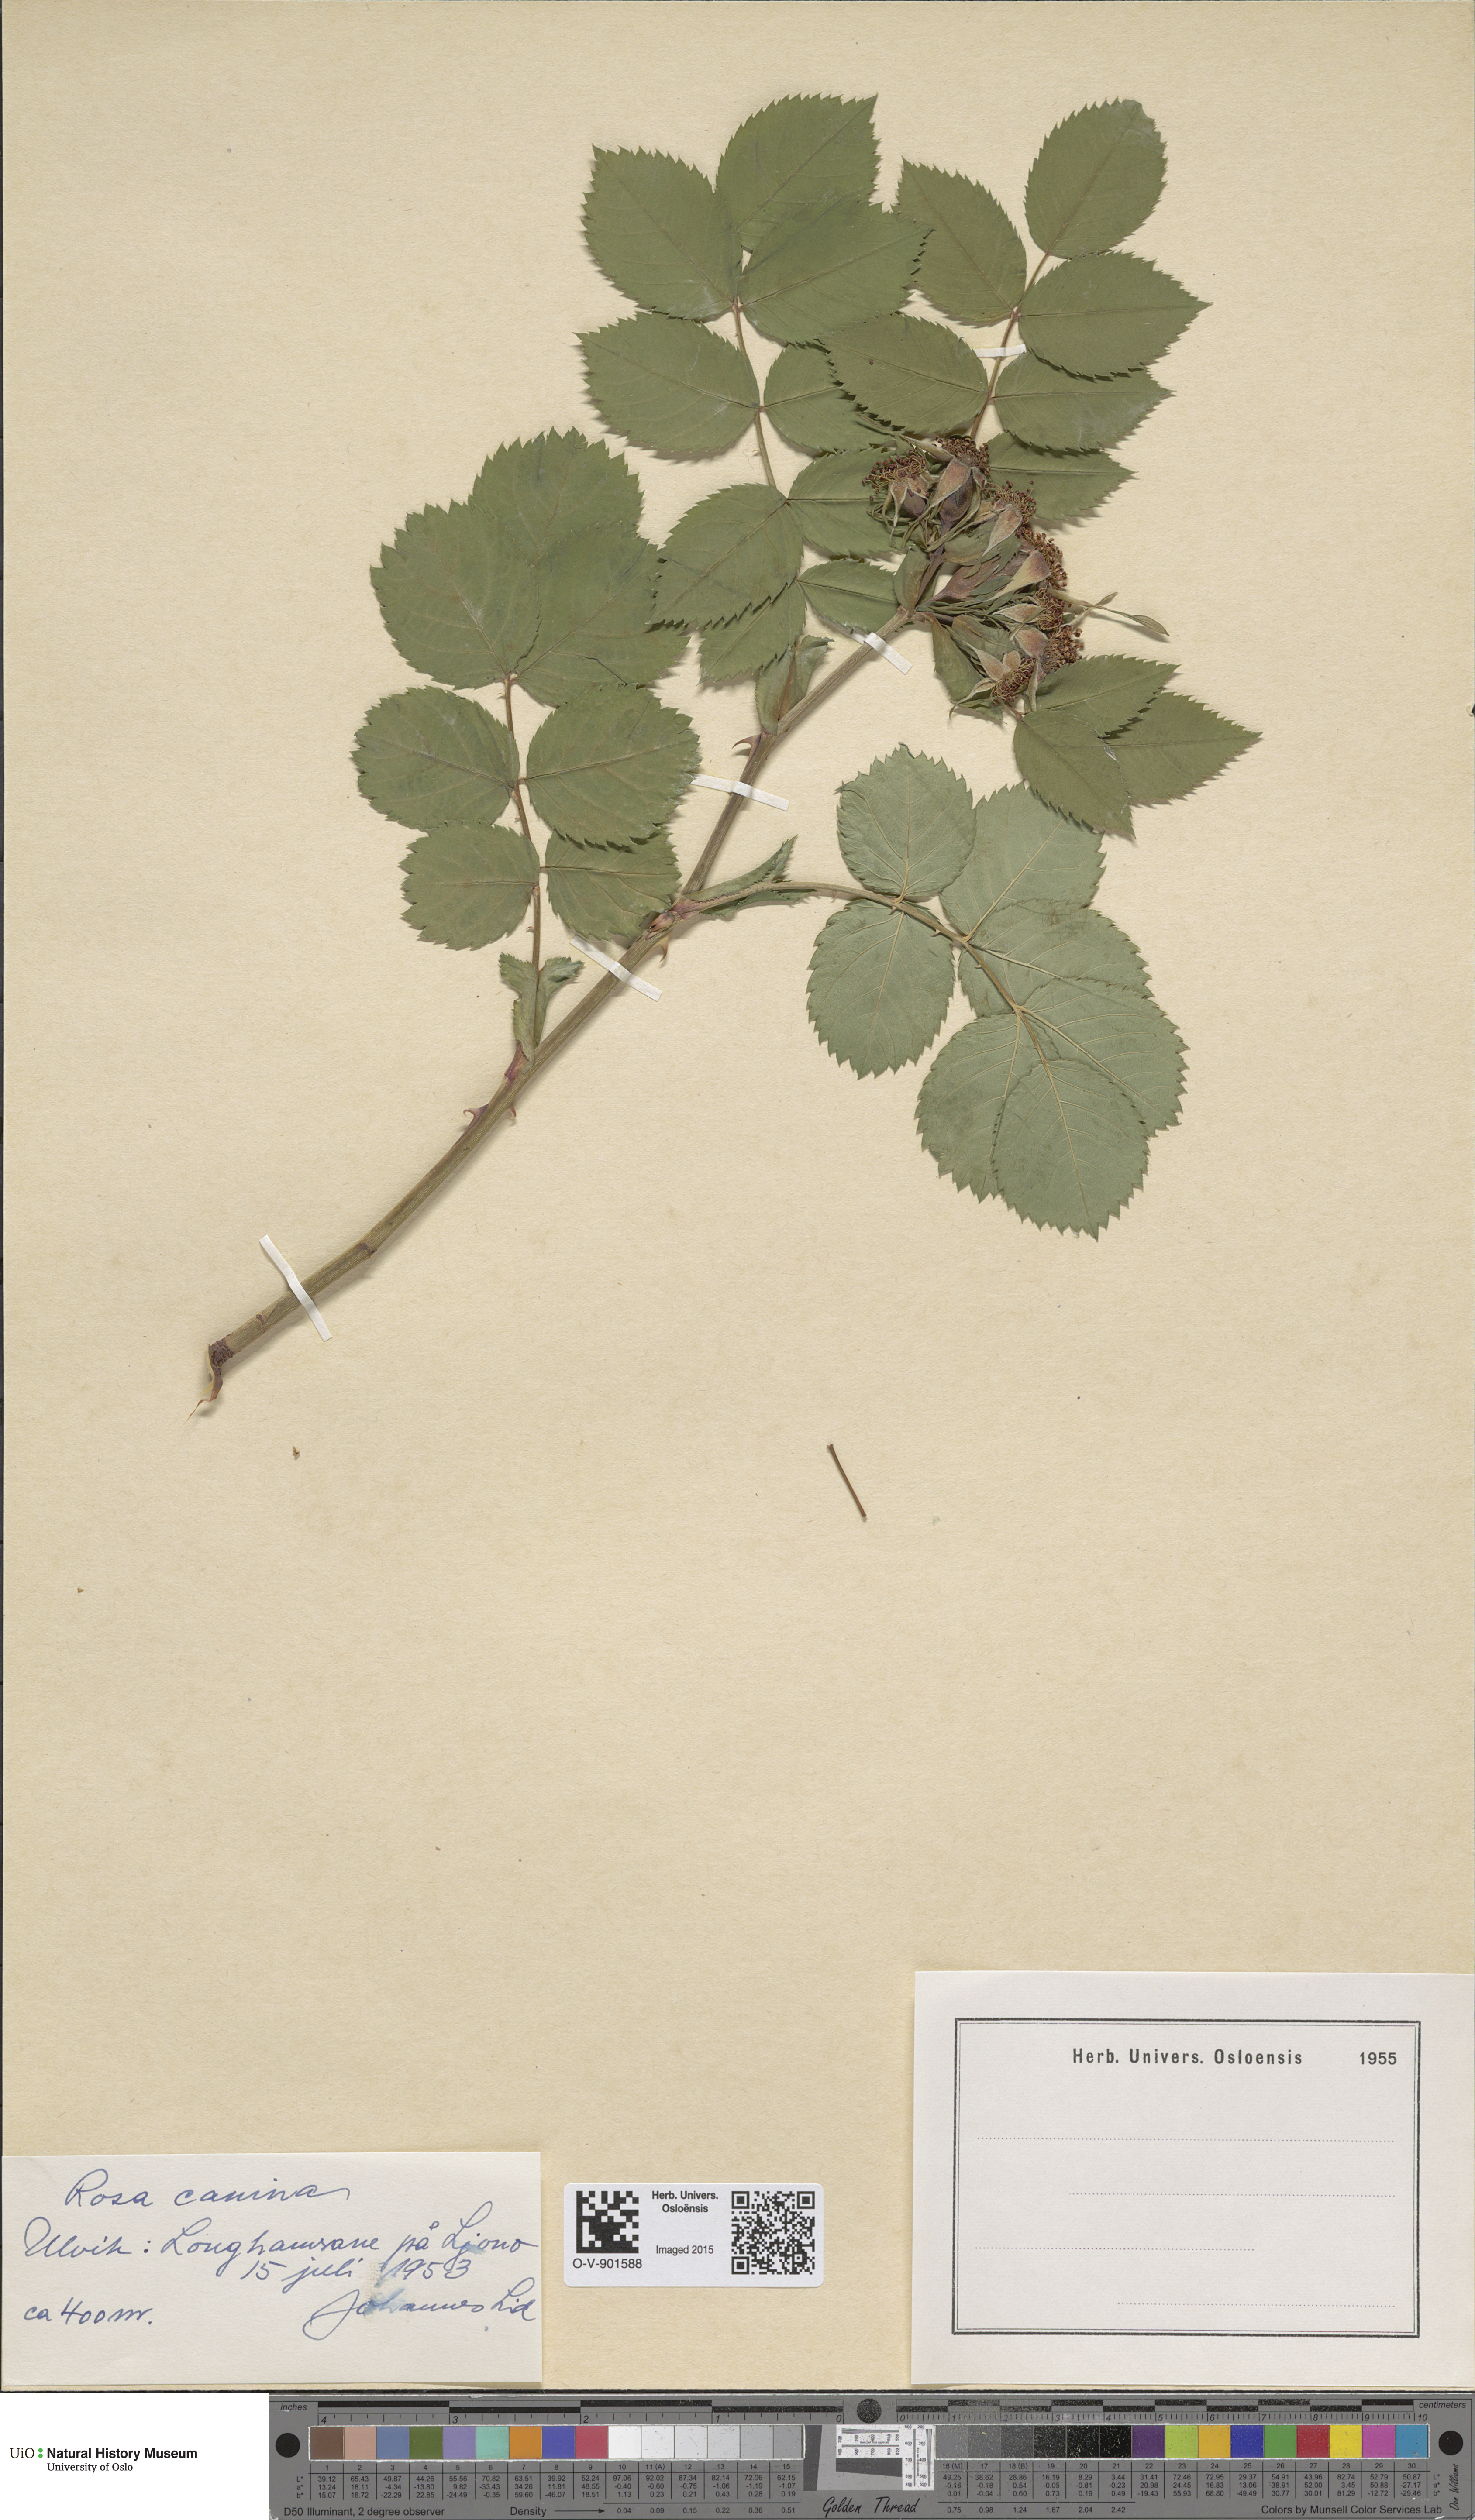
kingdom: Plantae
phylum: Tracheophyta
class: Magnoliopsida
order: Rosales
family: Rosaceae
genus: Rosa
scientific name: Rosa canina
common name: Dog rose
